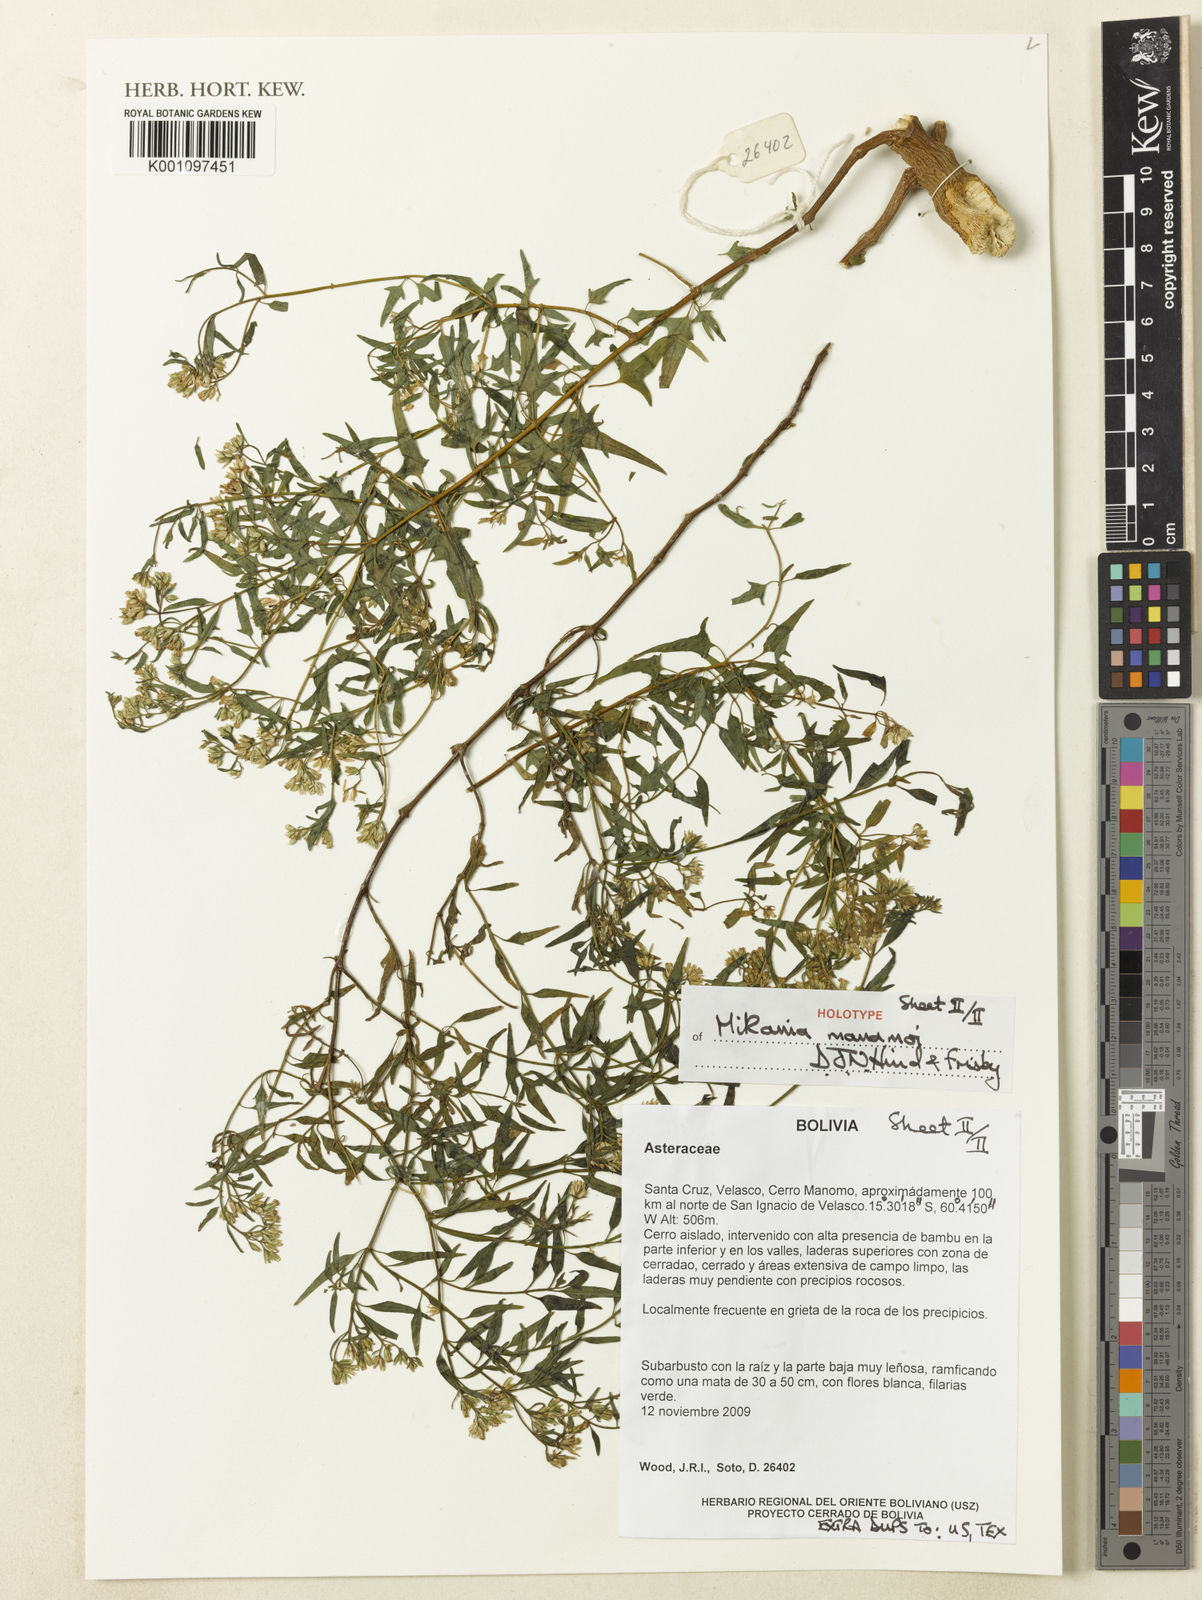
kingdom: Plantae
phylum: Tracheophyta
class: Magnoliopsida
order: Asterales
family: Asteraceae
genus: Mikania
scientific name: Mikania manomoi
